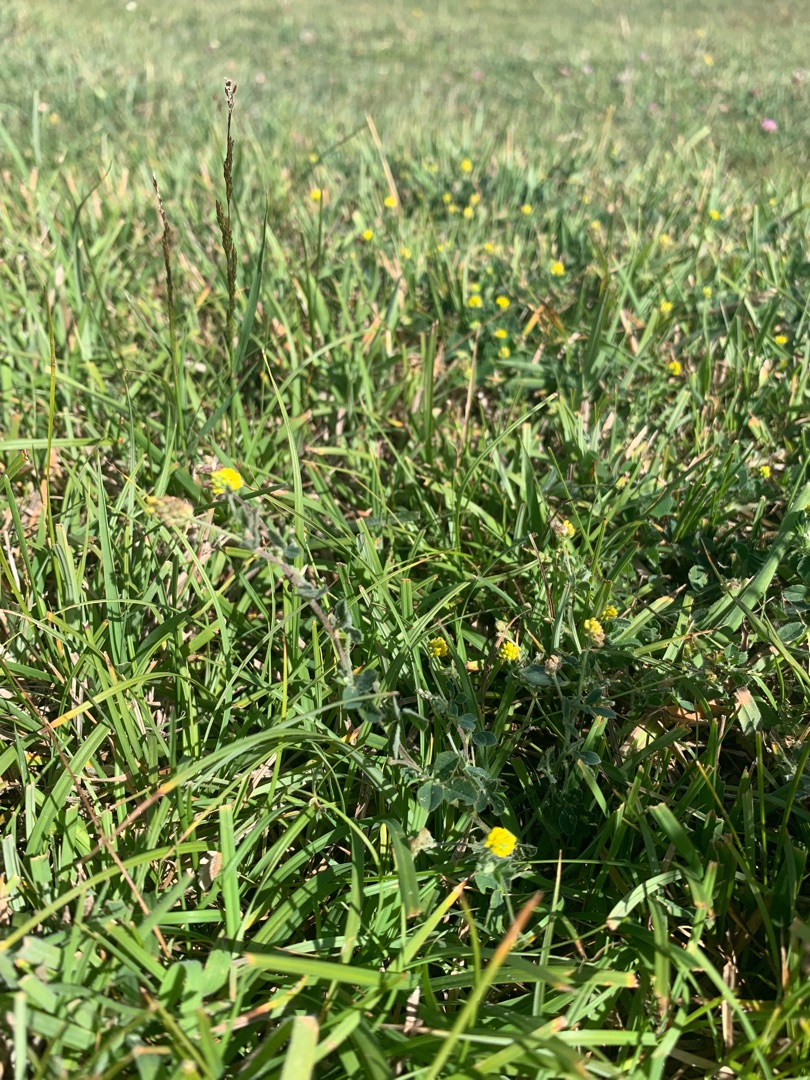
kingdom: Plantae
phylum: Tracheophyta
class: Magnoliopsida
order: Fabales
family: Fabaceae
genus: Medicago
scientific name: Medicago lupulina
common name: Humle-sneglebælg
